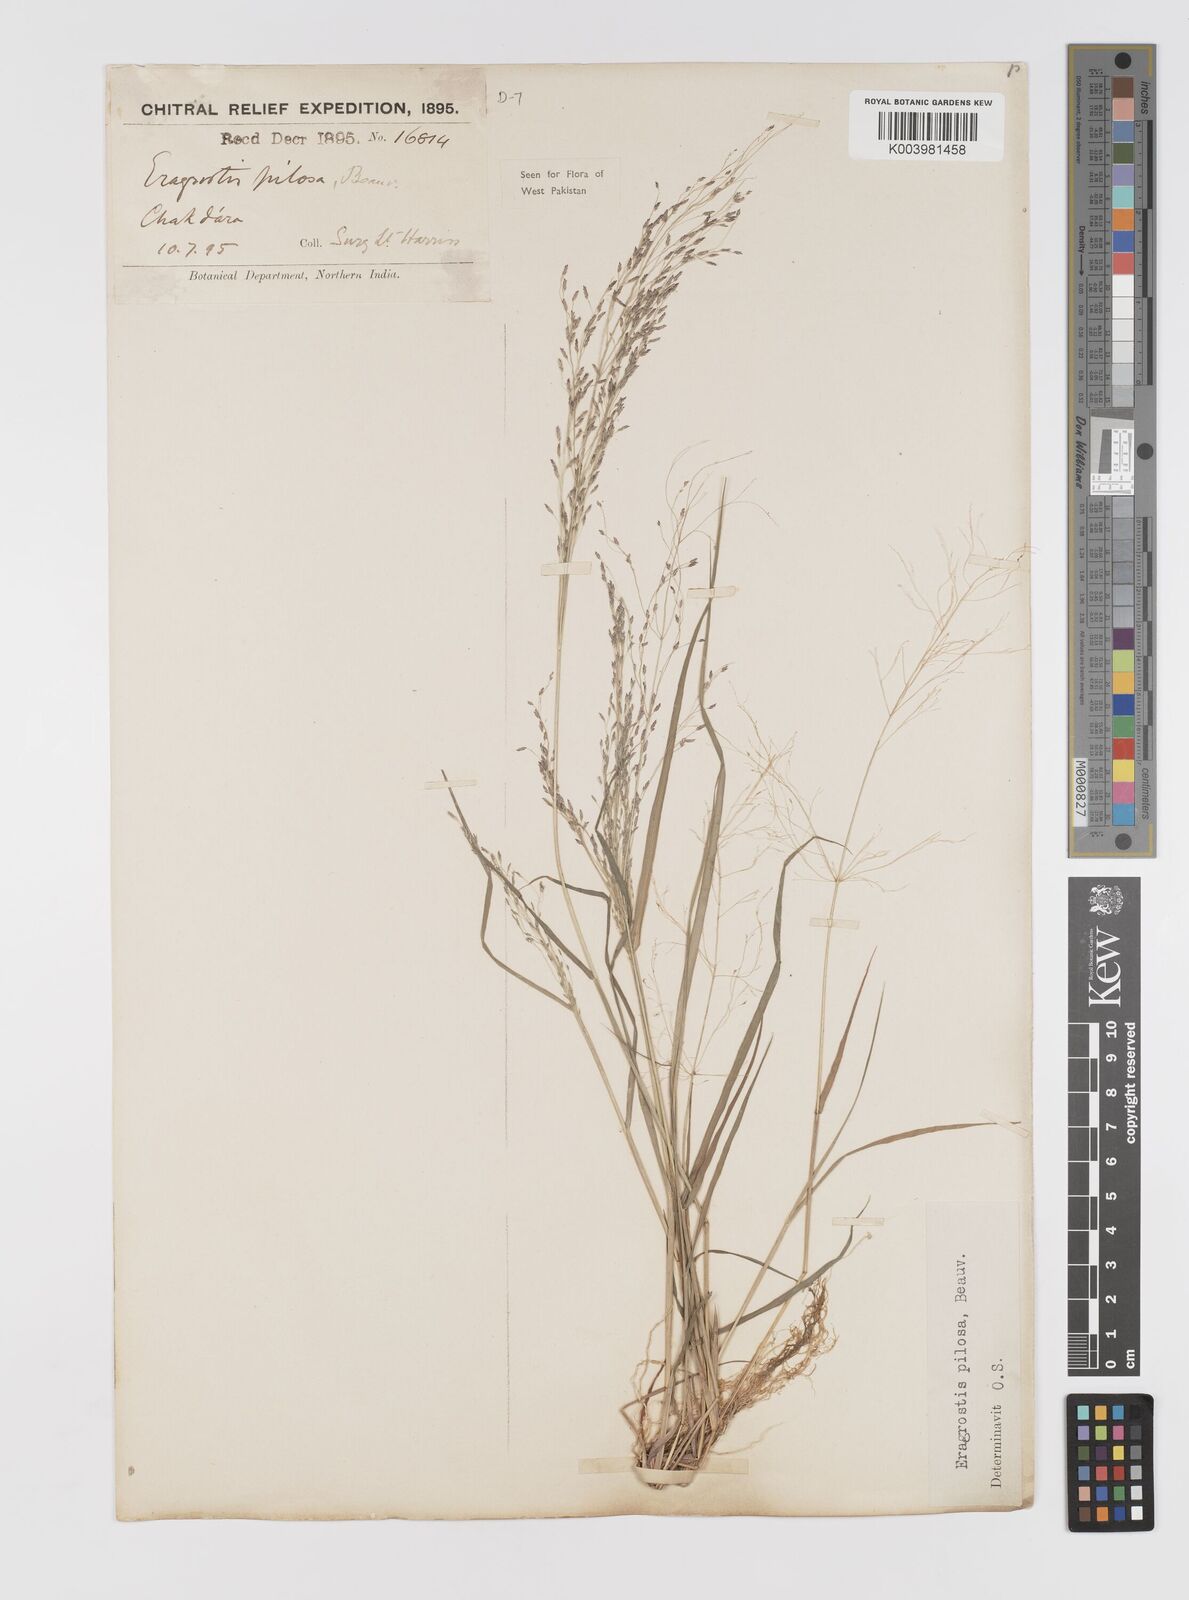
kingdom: Plantae
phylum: Tracheophyta
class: Liliopsida
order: Poales
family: Poaceae
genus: Eragrostis
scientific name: Eragrostis pilosa
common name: Indian lovegrass
